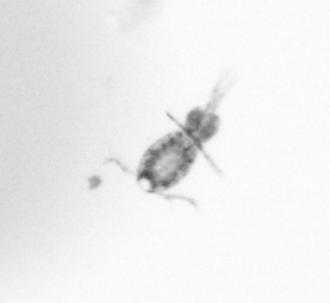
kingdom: Animalia
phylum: Arthropoda
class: Copepoda
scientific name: Copepoda
